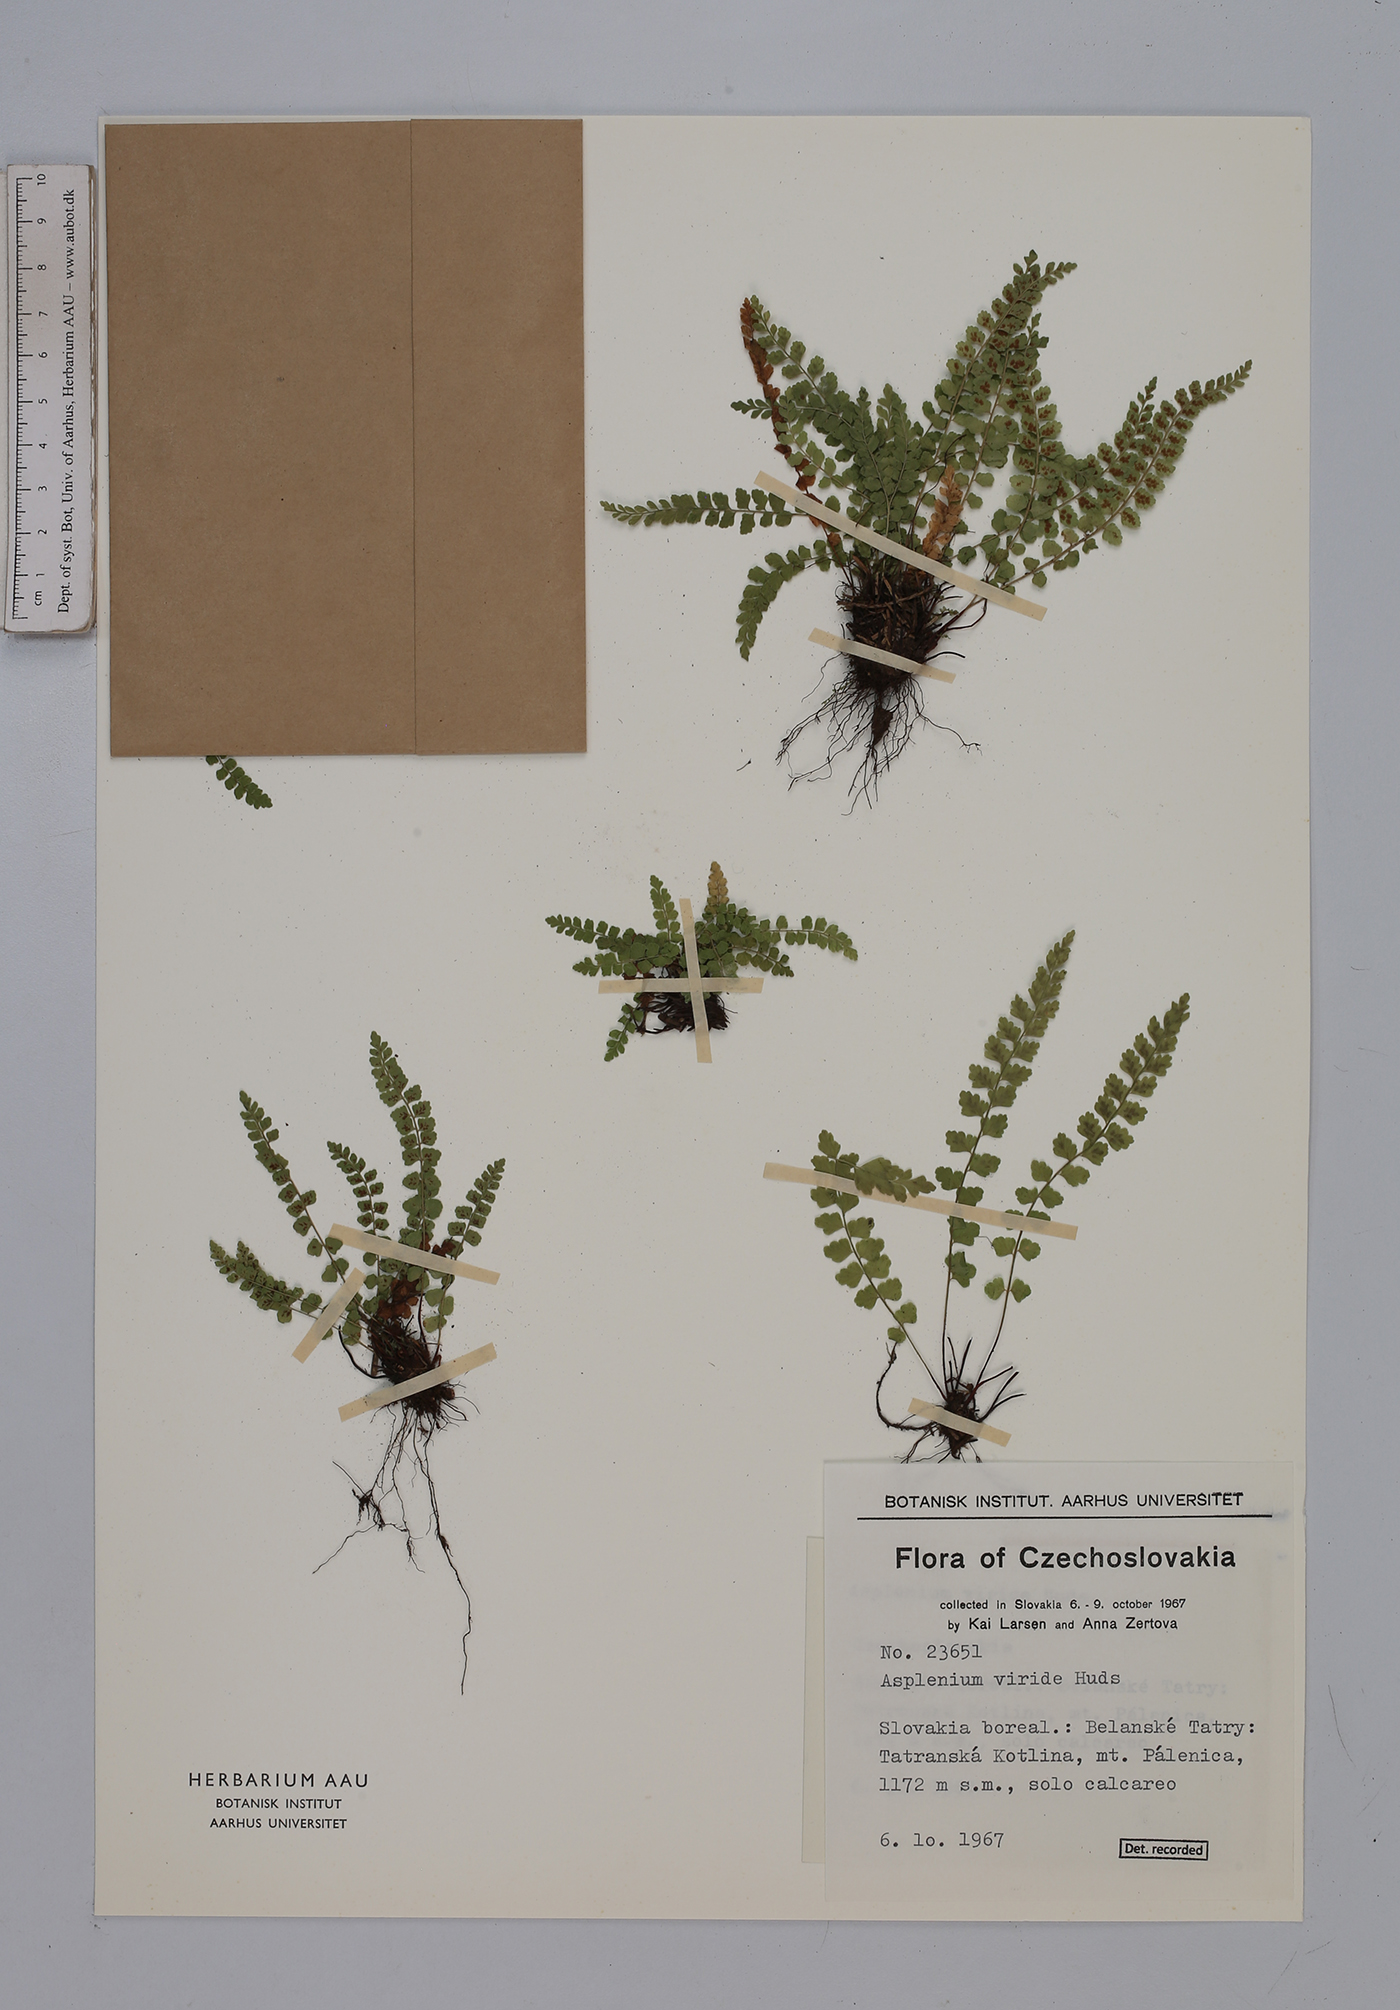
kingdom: Plantae
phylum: Tracheophyta
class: Polypodiopsida
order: Polypodiales
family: Aspleniaceae
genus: Asplenium
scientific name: Asplenium viride
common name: Green spleenwort
